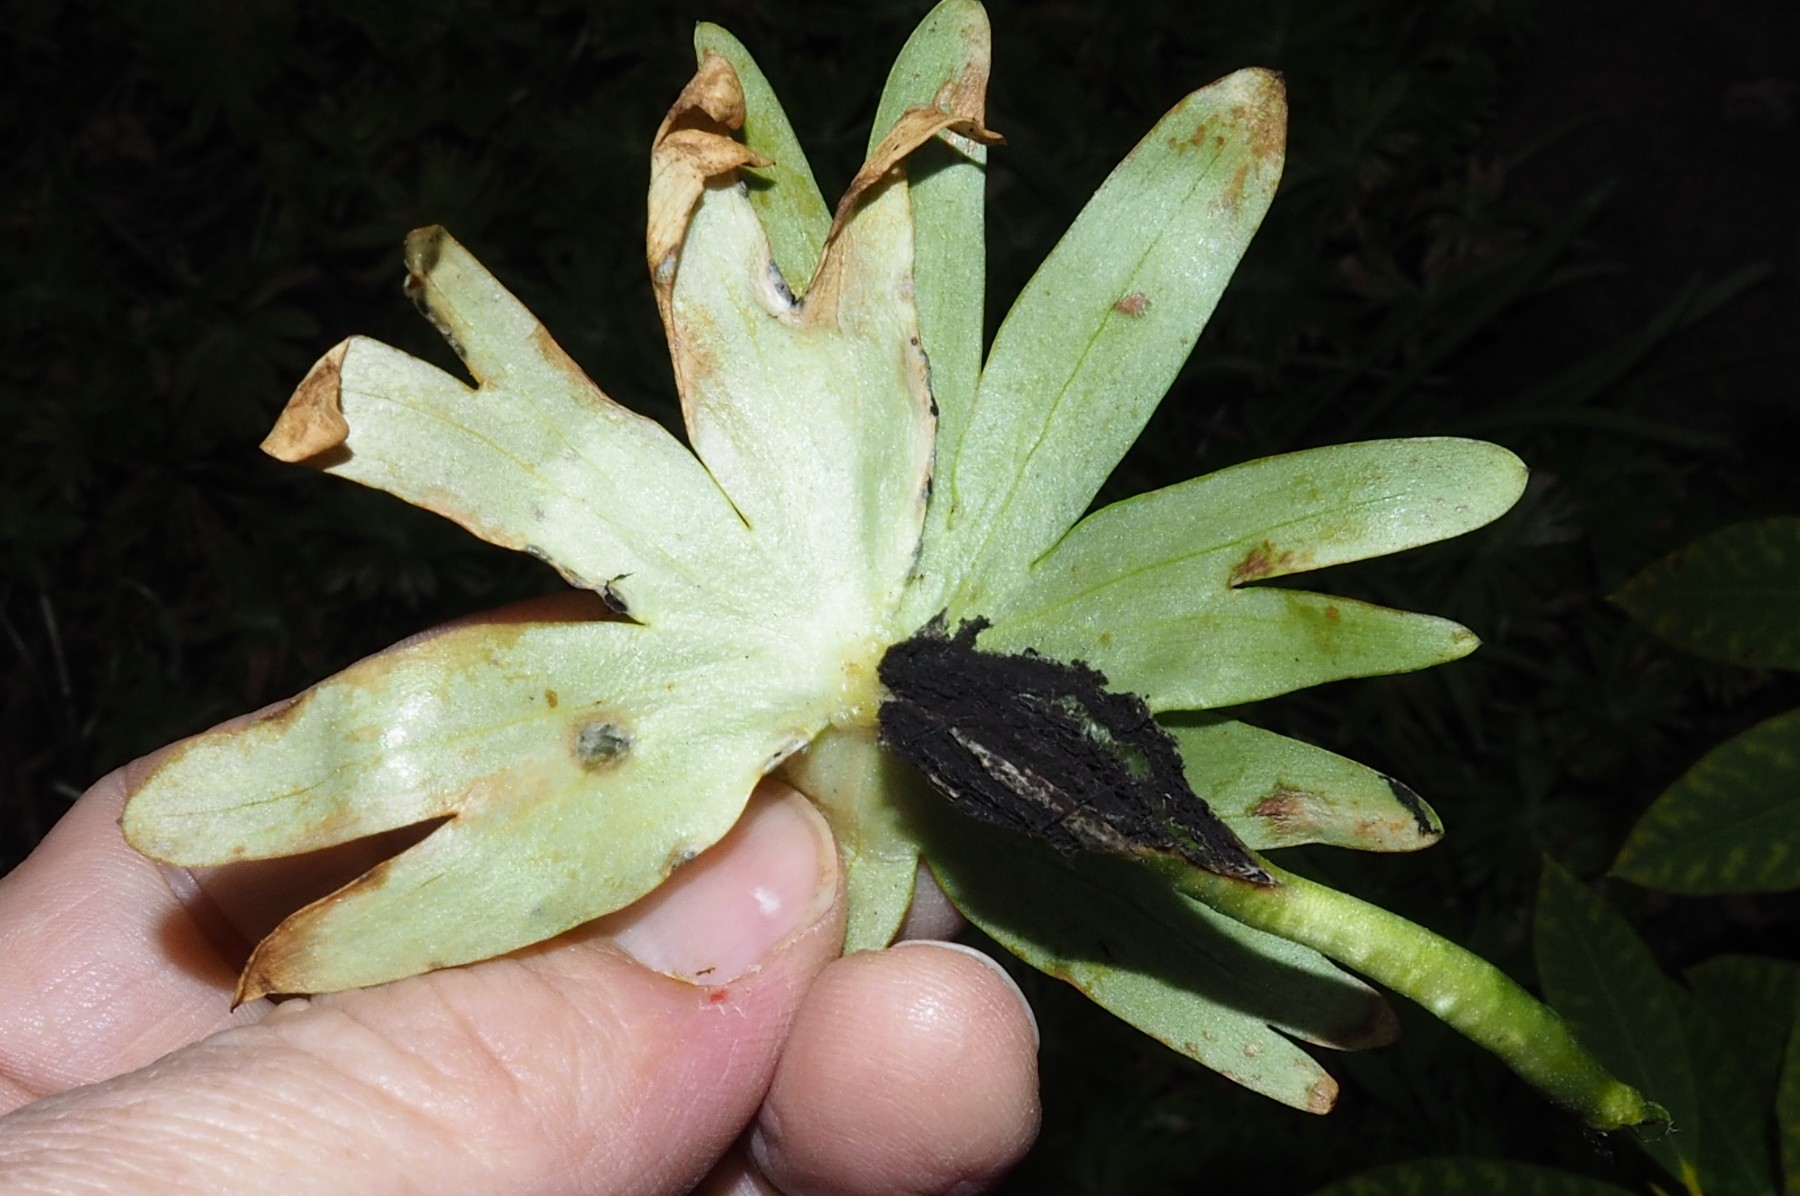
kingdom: Fungi
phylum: Basidiomycota
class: Ustilaginomycetes
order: Urocystidales
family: Urocystidaceae
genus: Urocystis
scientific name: Urocystis eranthidis
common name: erantis-brand
